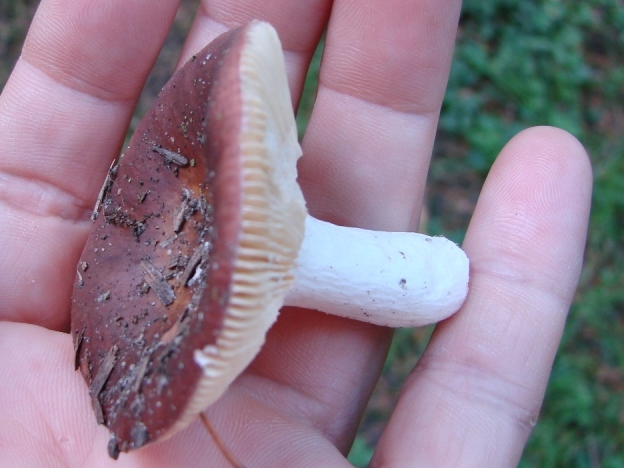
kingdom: Fungi
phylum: Basidiomycota
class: Agaricomycetes
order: Russulales
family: Russulaceae
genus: Russula
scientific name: Russula
